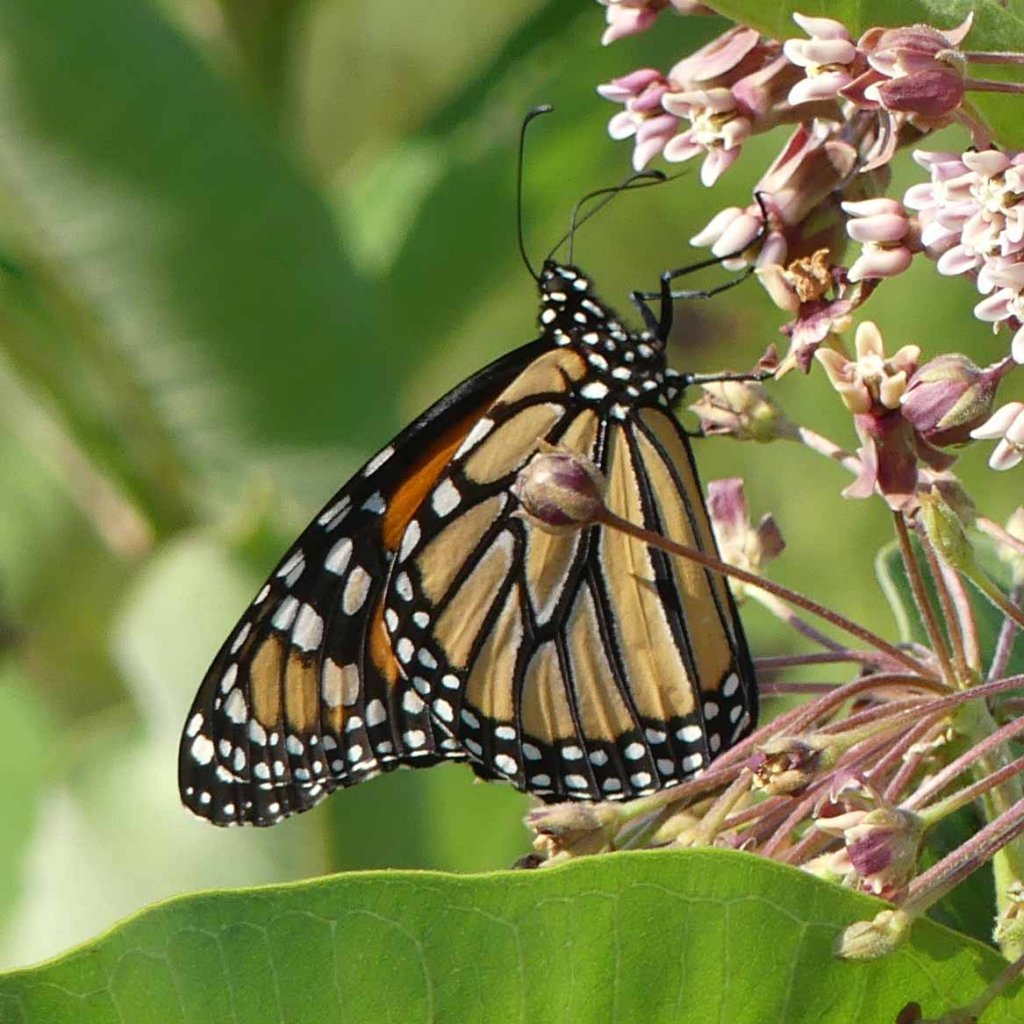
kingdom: Animalia
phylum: Arthropoda
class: Insecta
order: Lepidoptera
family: Nymphalidae
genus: Danaus
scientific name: Danaus plexippus
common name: Monarch
